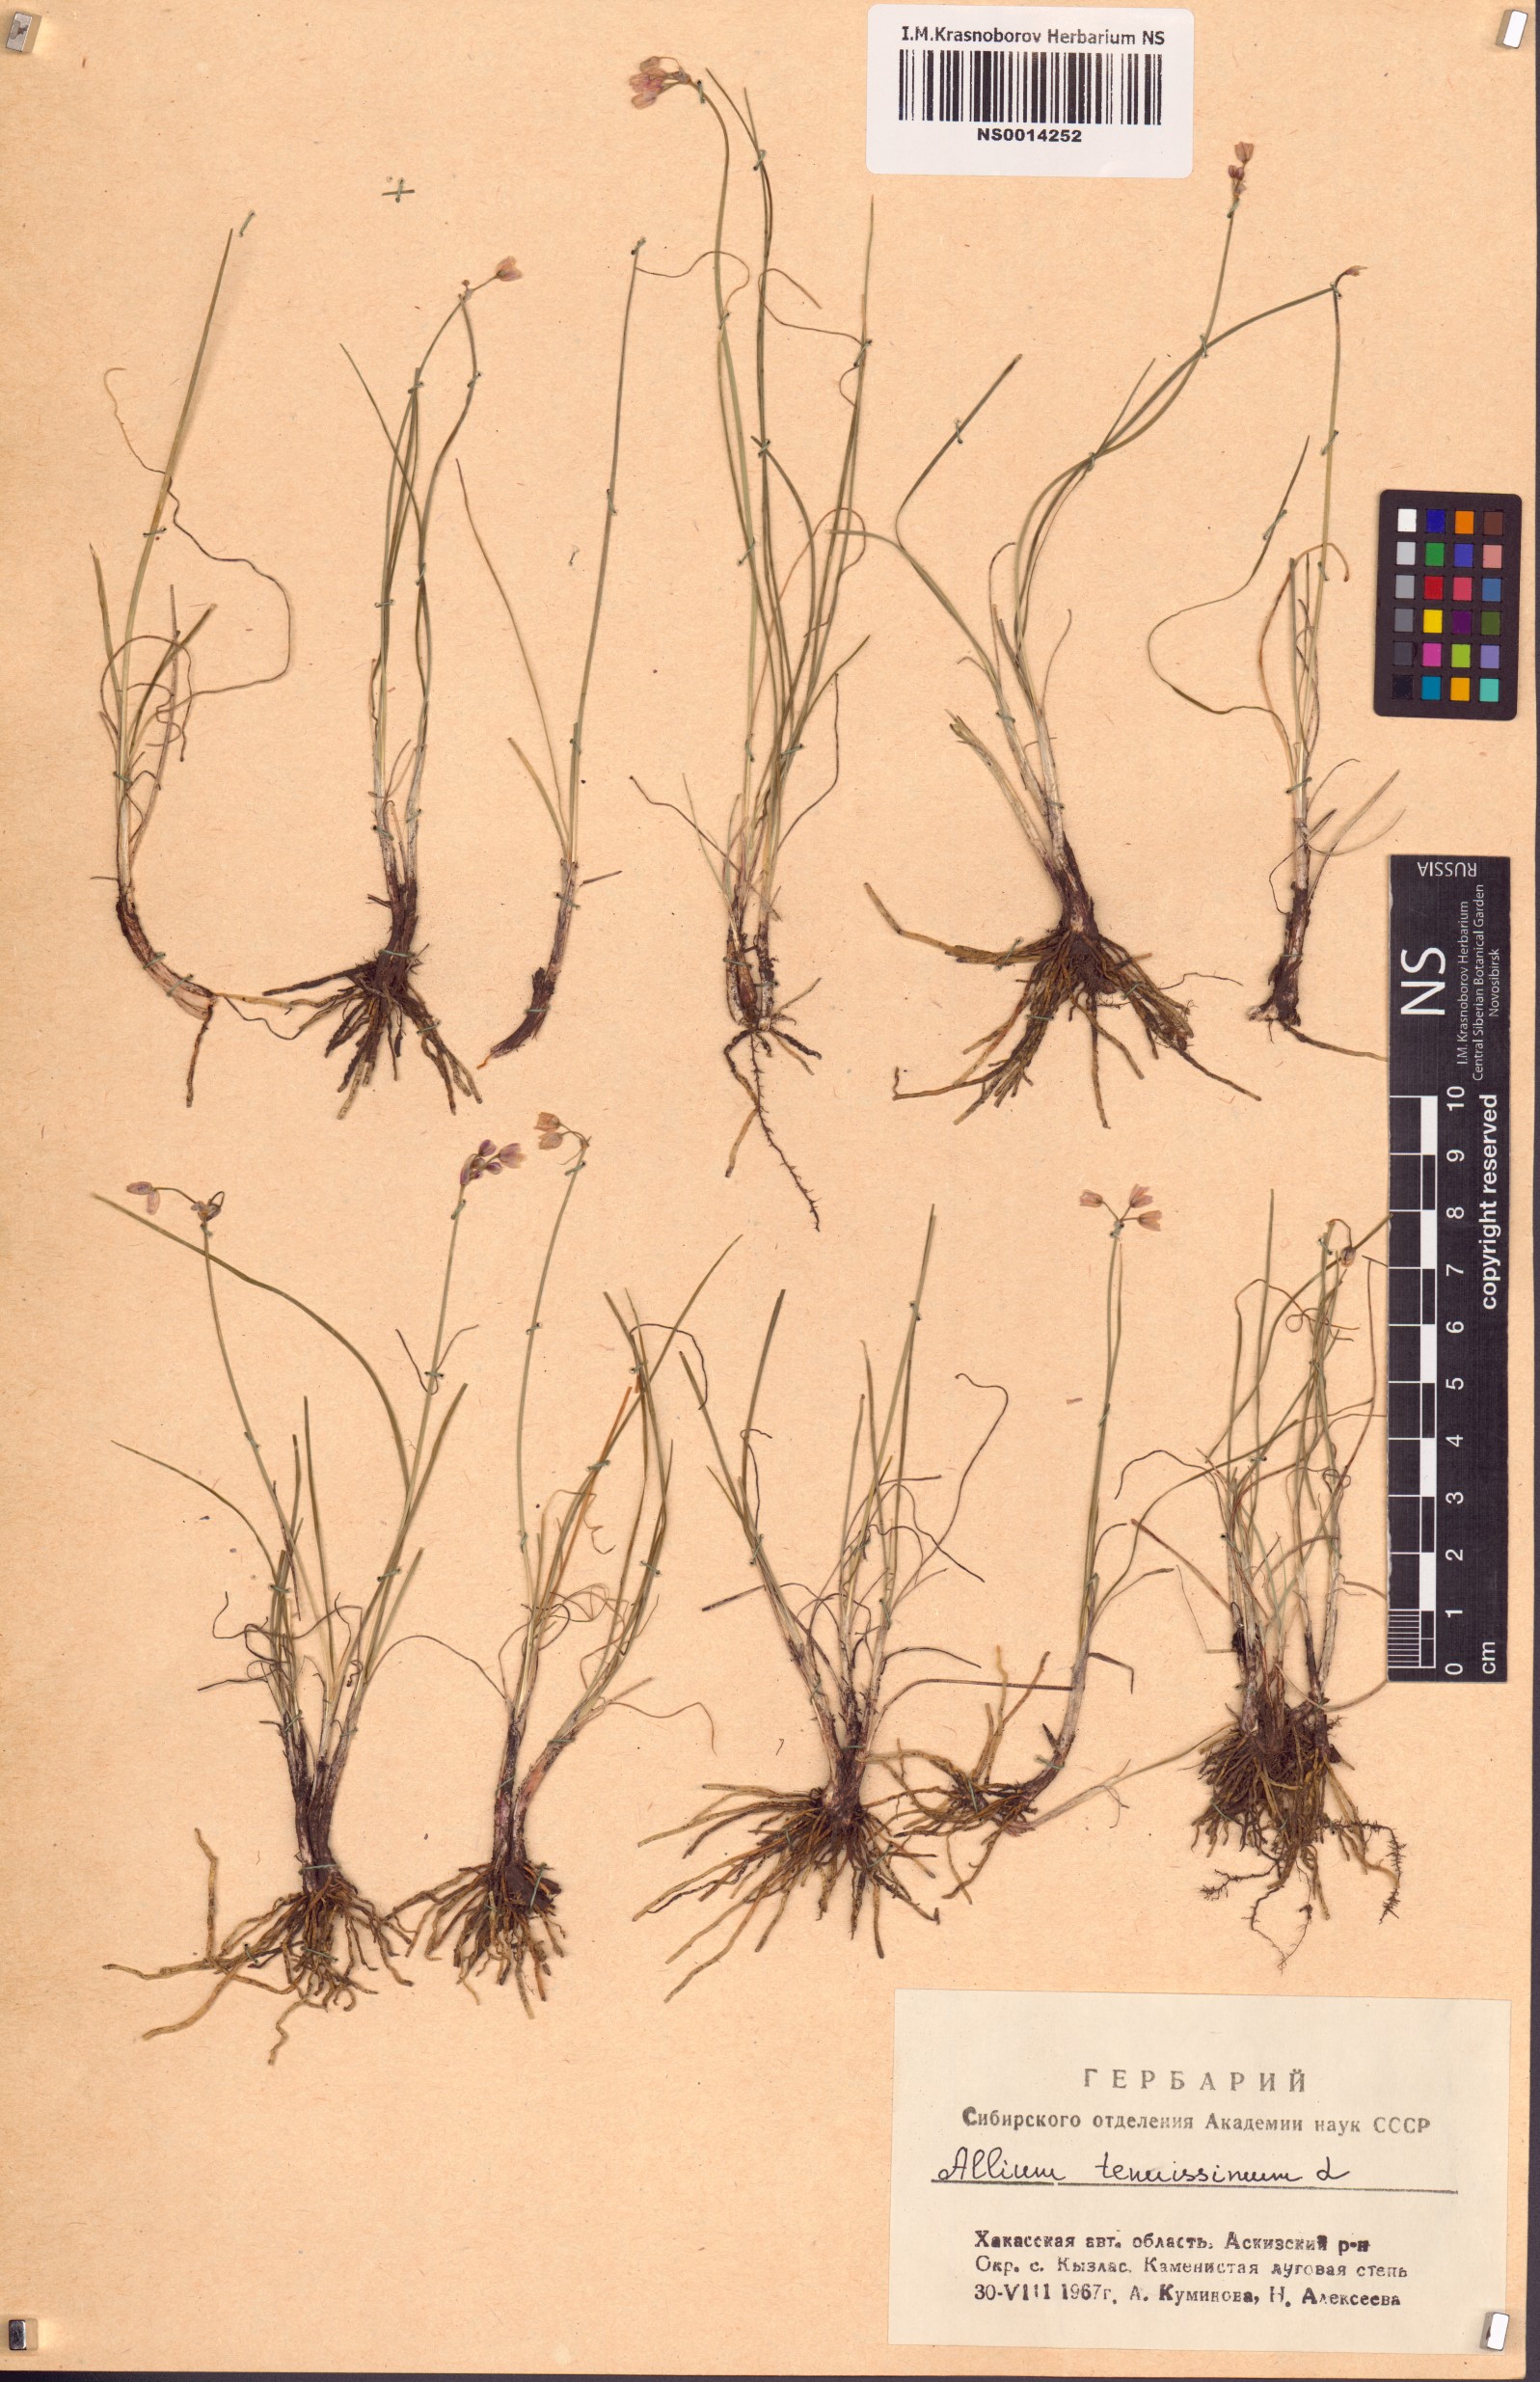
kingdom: Plantae
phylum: Tracheophyta
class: Liliopsida
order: Asparagales
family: Amaryllidaceae
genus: Allium
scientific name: Allium tenuissimum
